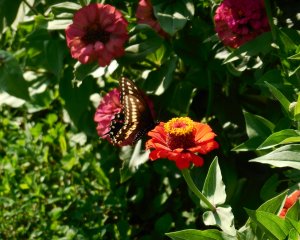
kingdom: Animalia
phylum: Arthropoda
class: Insecta
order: Lepidoptera
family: Papilionidae
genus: Papilio
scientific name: Papilio polyxenes
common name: Black Swallowtail
